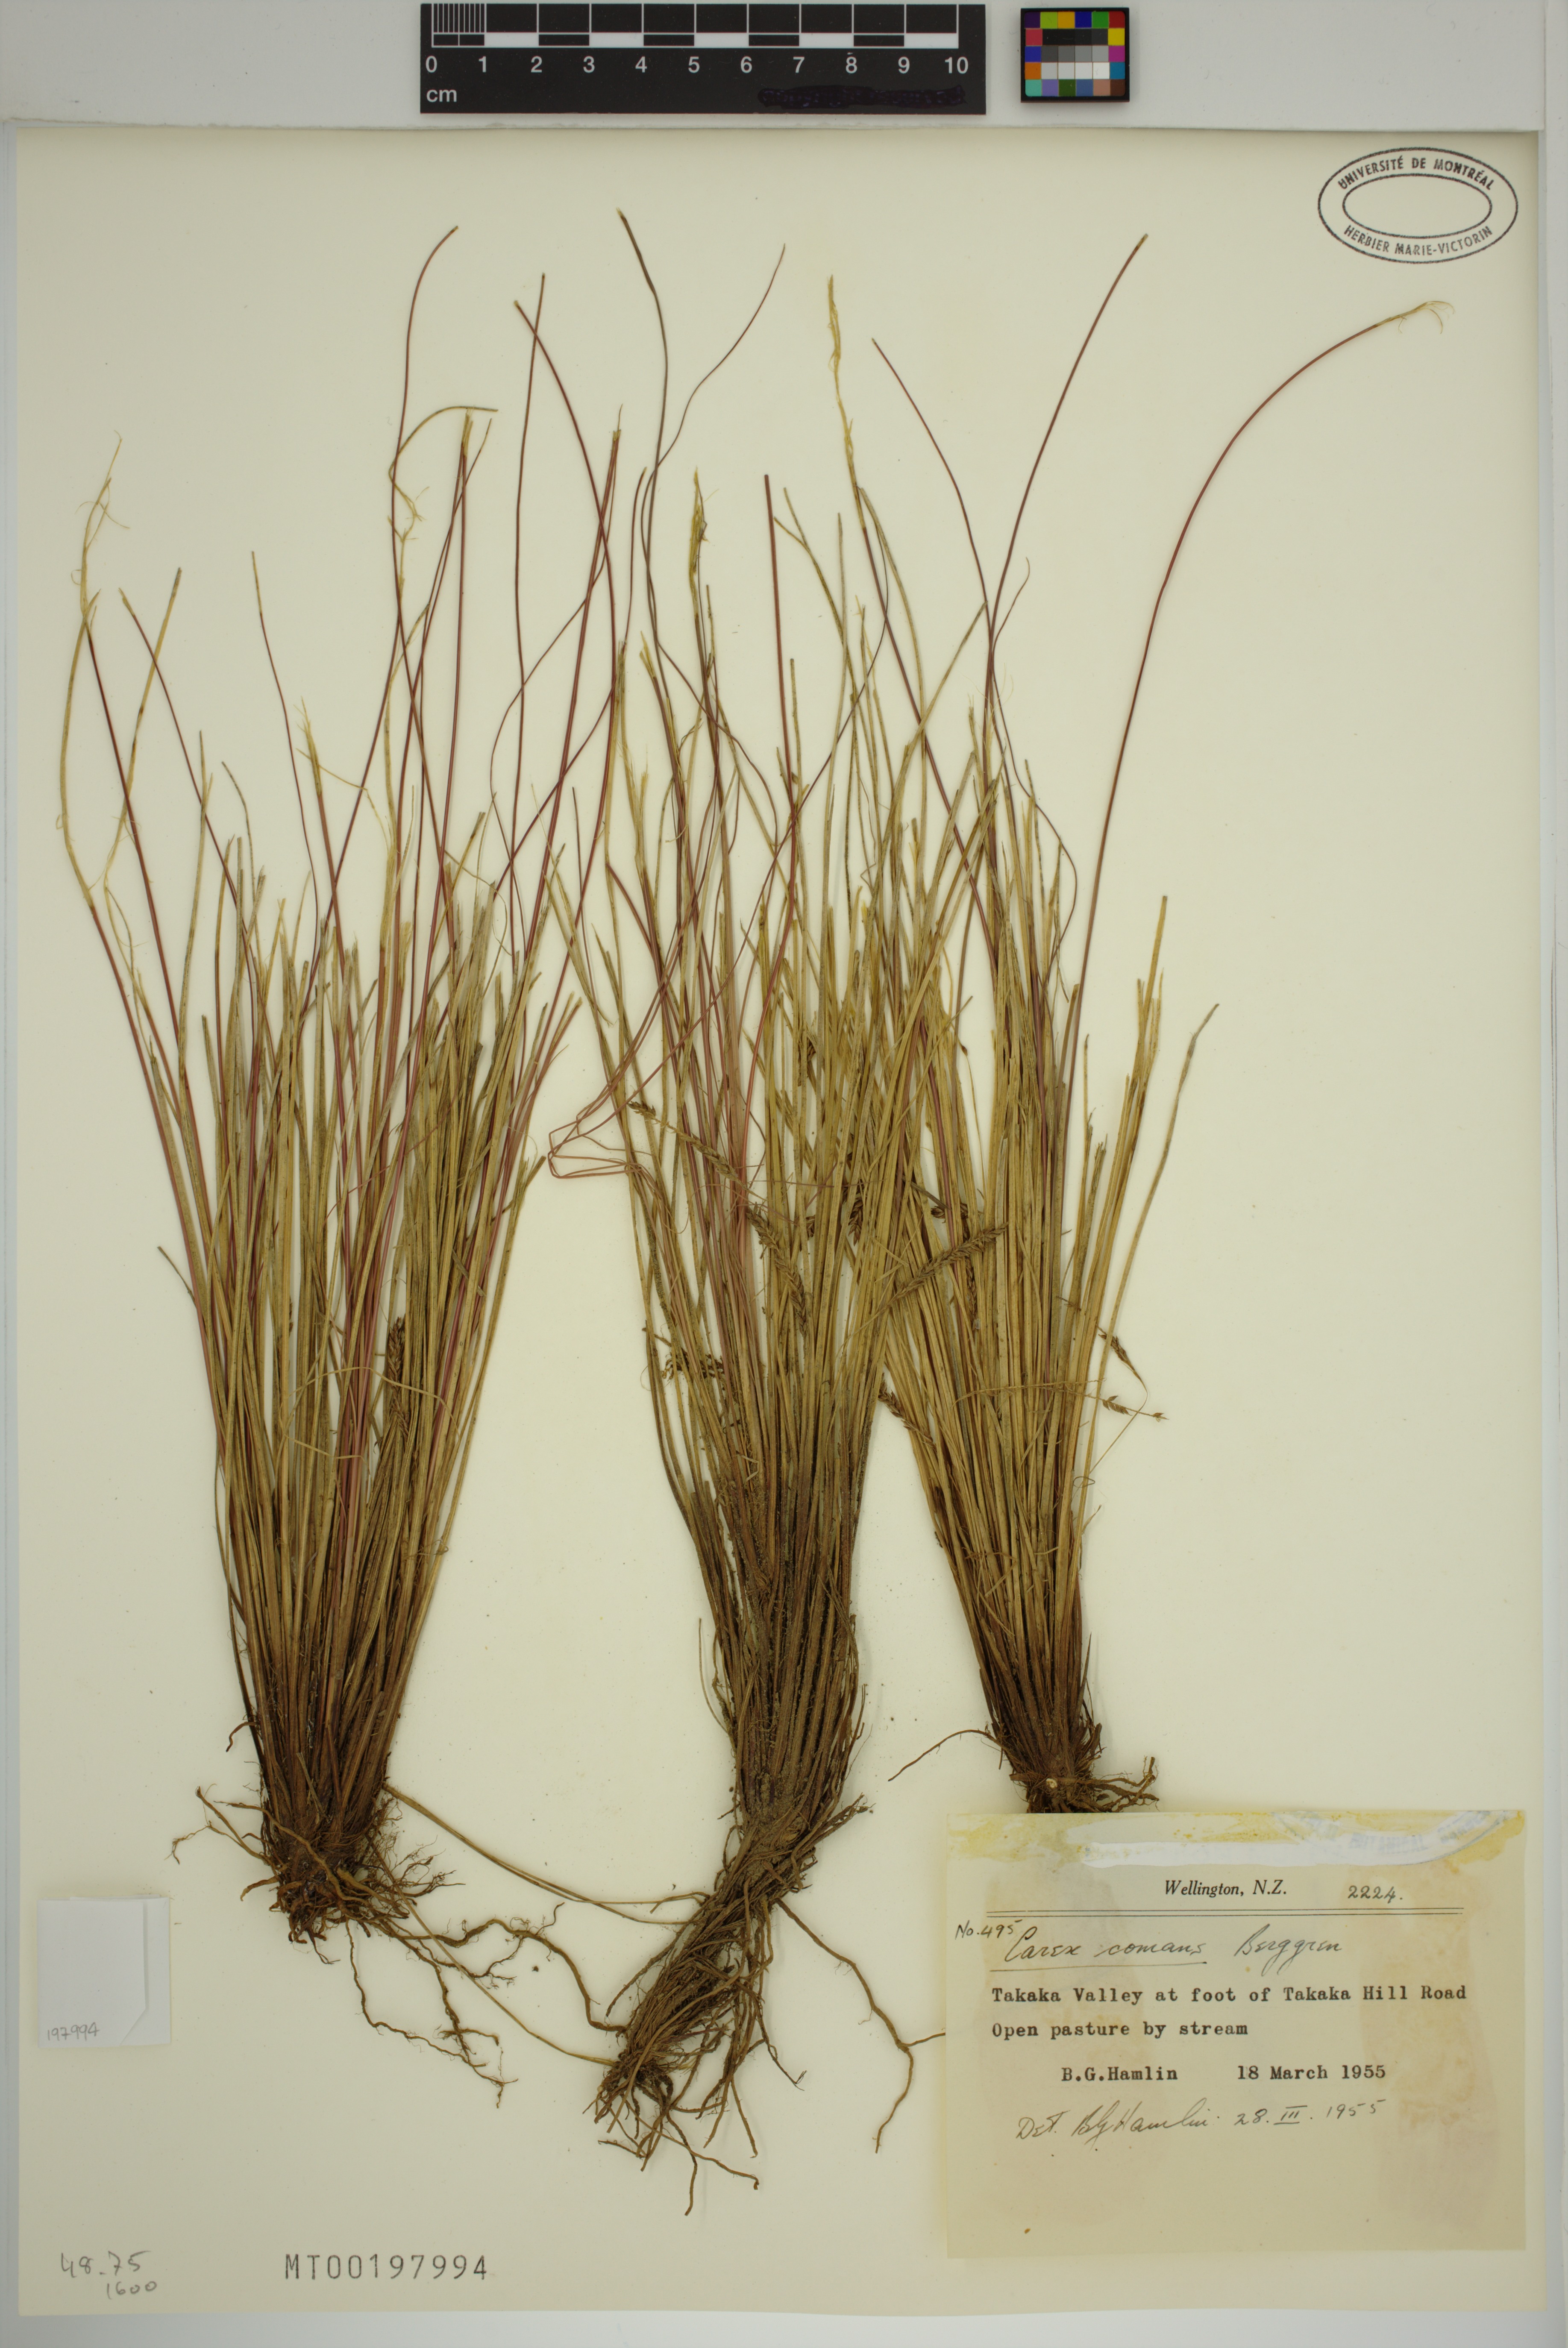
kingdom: Plantae
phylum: Tracheophyta
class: Liliopsida
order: Poales
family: Cyperaceae
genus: Carex
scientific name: Carex comans
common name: Longwood tussock
